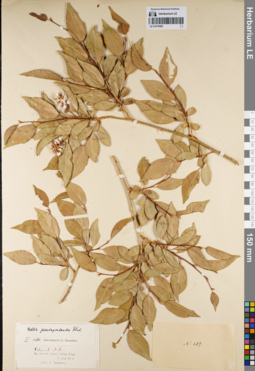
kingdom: Plantae
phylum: Tracheophyta
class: Magnoliopsida
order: Malpighiales
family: Salicaceae
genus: Salix
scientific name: Salix pseudopentandra
